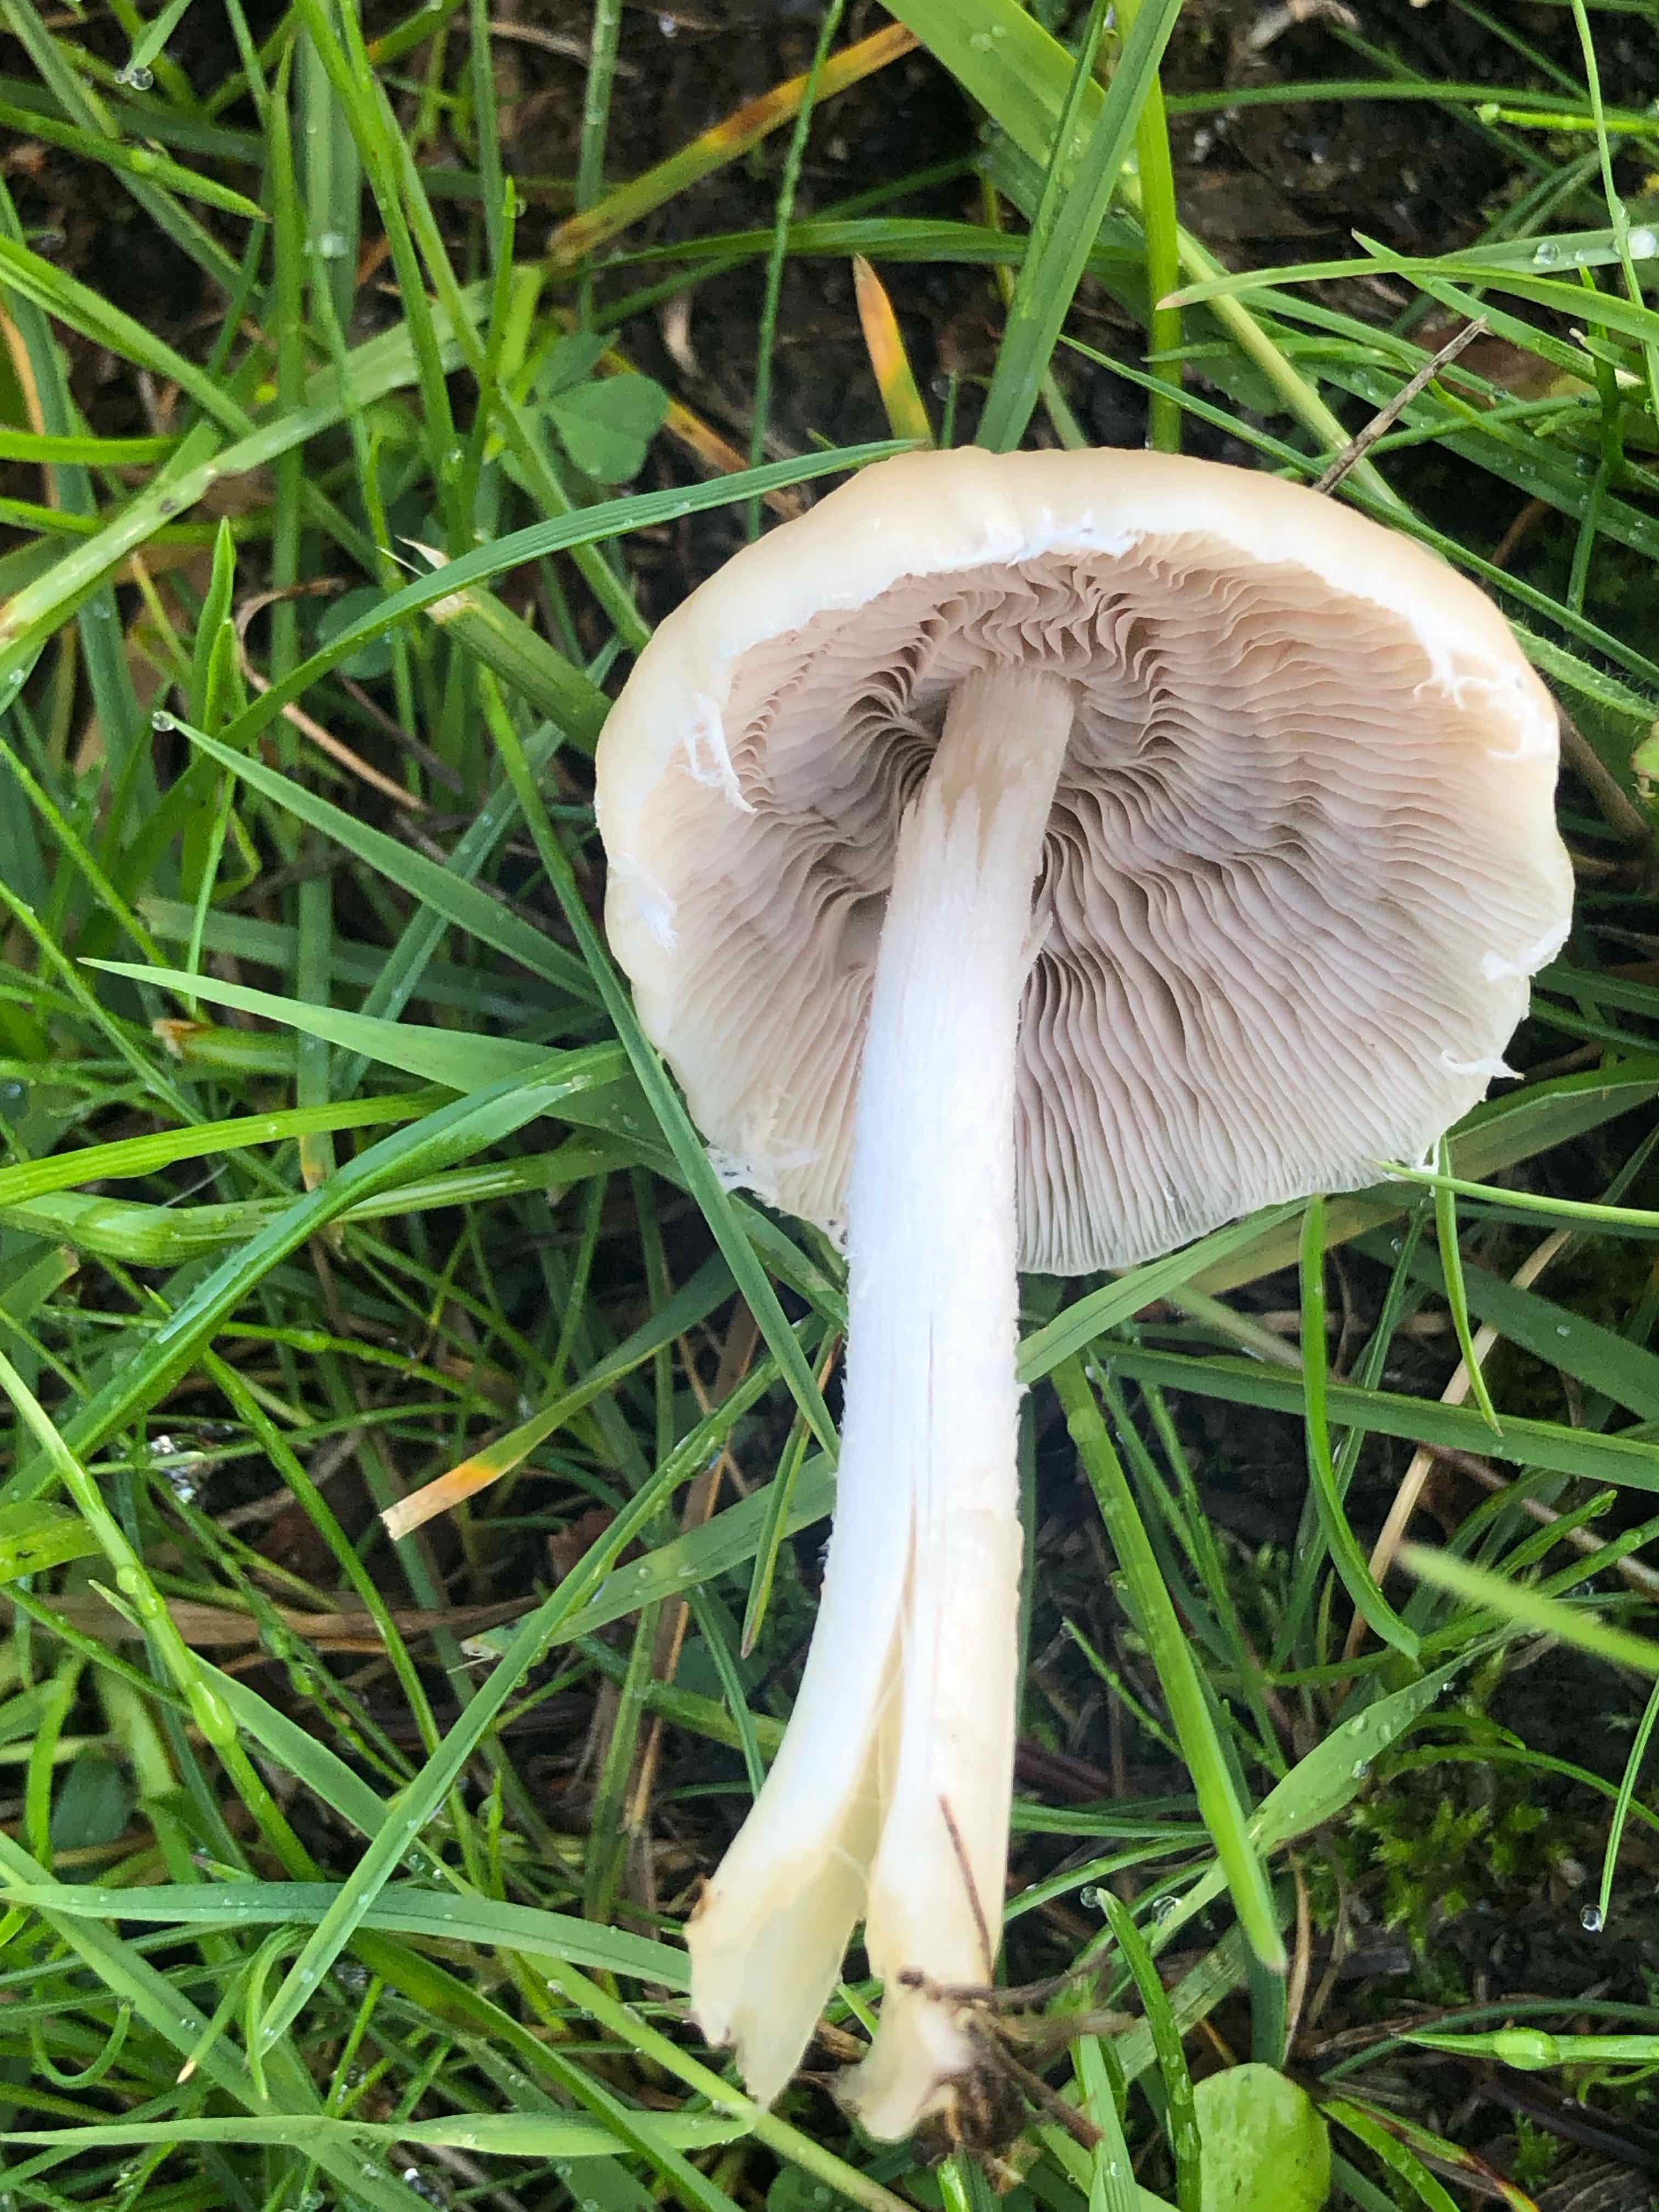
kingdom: Fungi
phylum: Basidiomycota
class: Agaricomycetes
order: Agaricales
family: Psathyrellaceae
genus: Candolleomyces
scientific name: Candolleomyces candolleanus
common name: Candolles mørkhat
